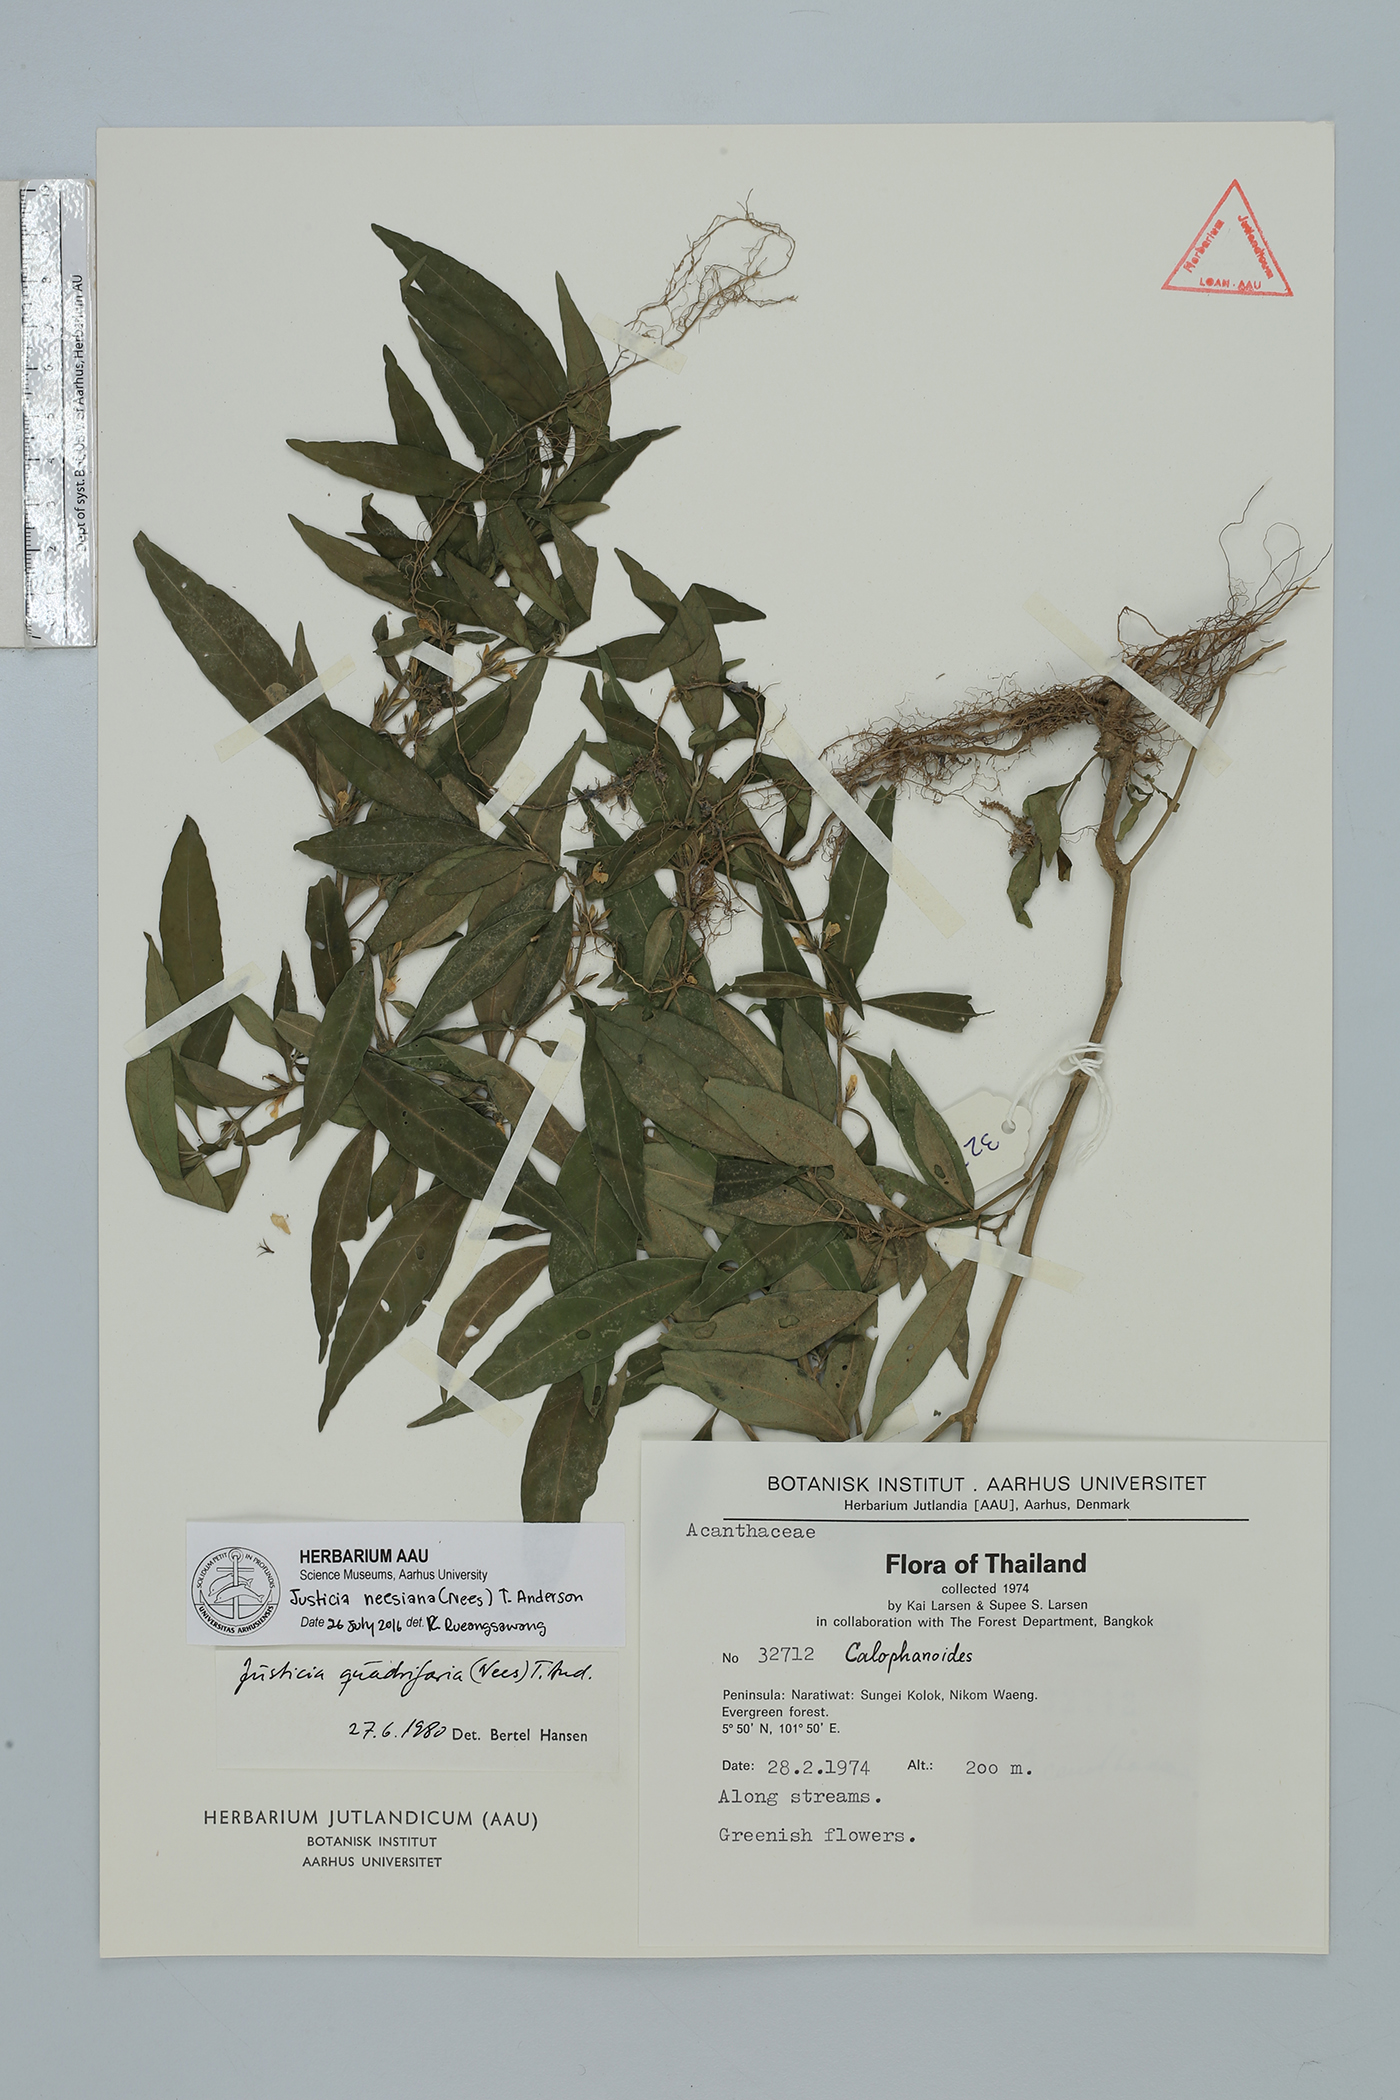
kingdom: Plantae
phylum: Tracheophyta
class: Magnoliopsida
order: Lamiales
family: Acanthaceae
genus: Justicia
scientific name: Justicia neesiana
